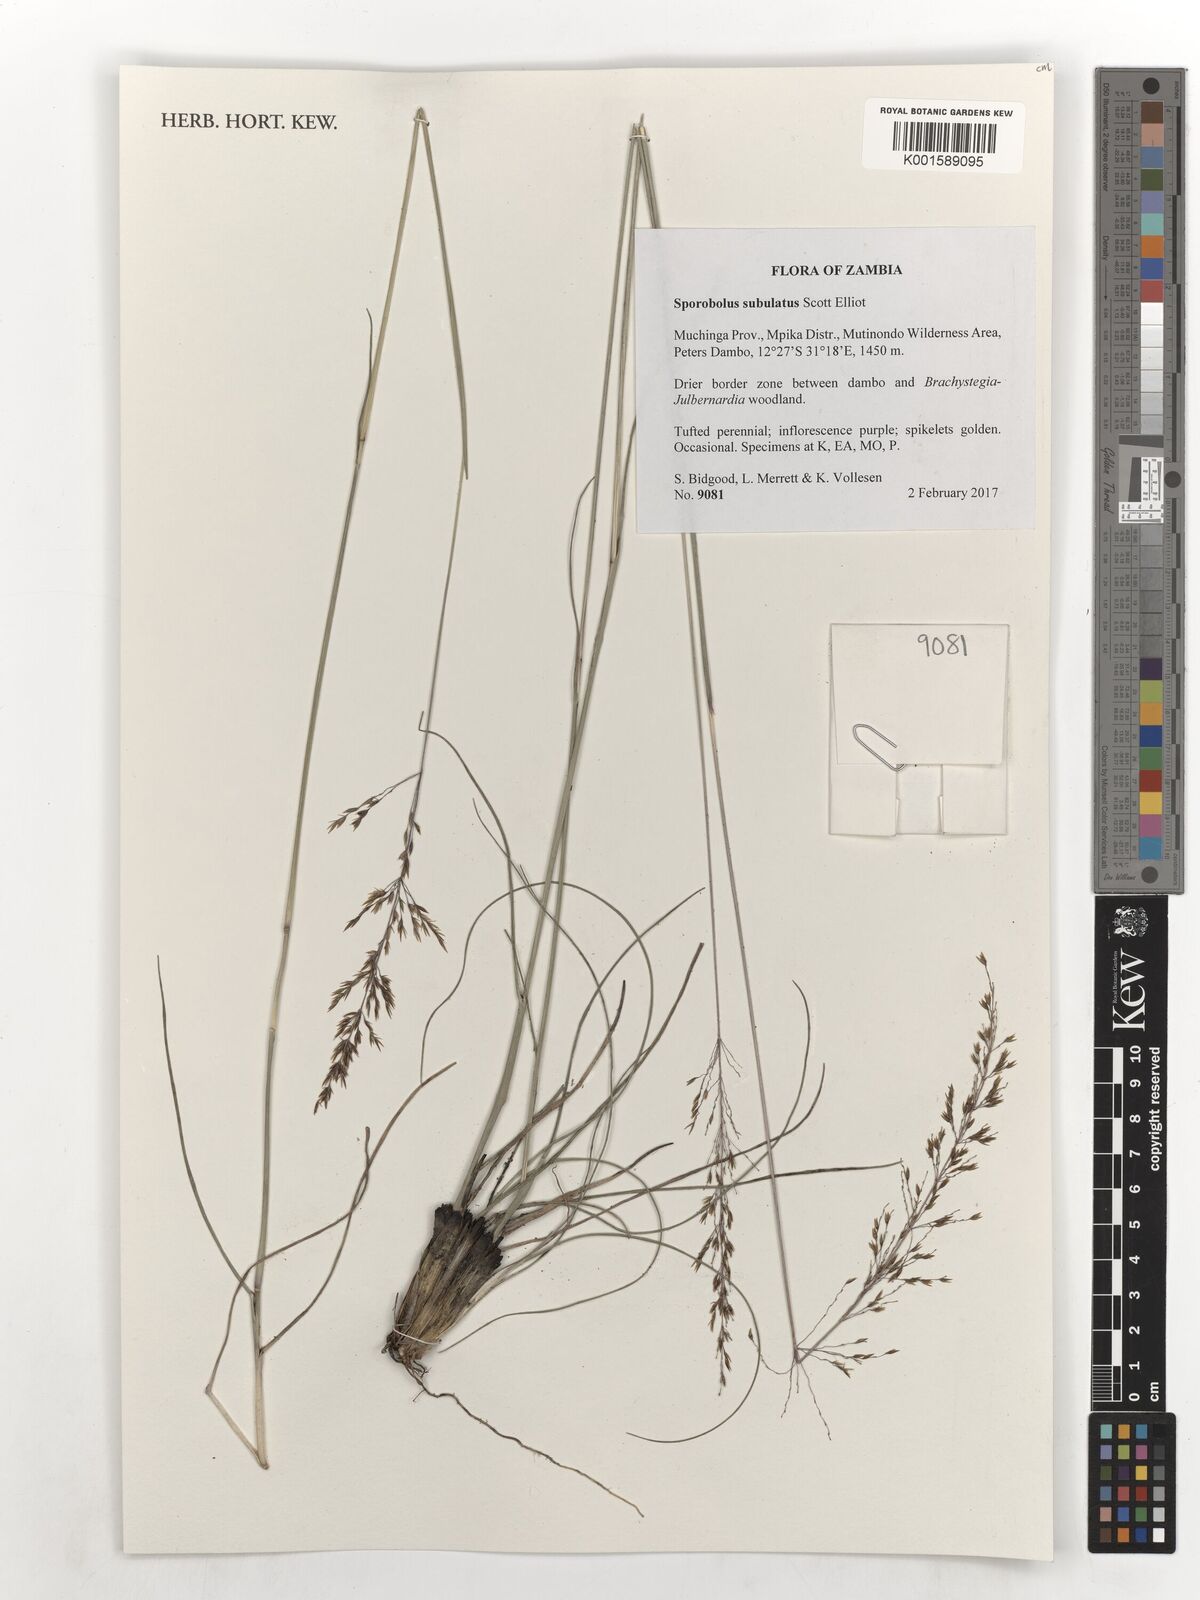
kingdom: Plantae
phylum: Tracheophyta
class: Liliopsida
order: Poales
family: Poaceae
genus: Sporobolus
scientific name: Sporobolus subulatus
